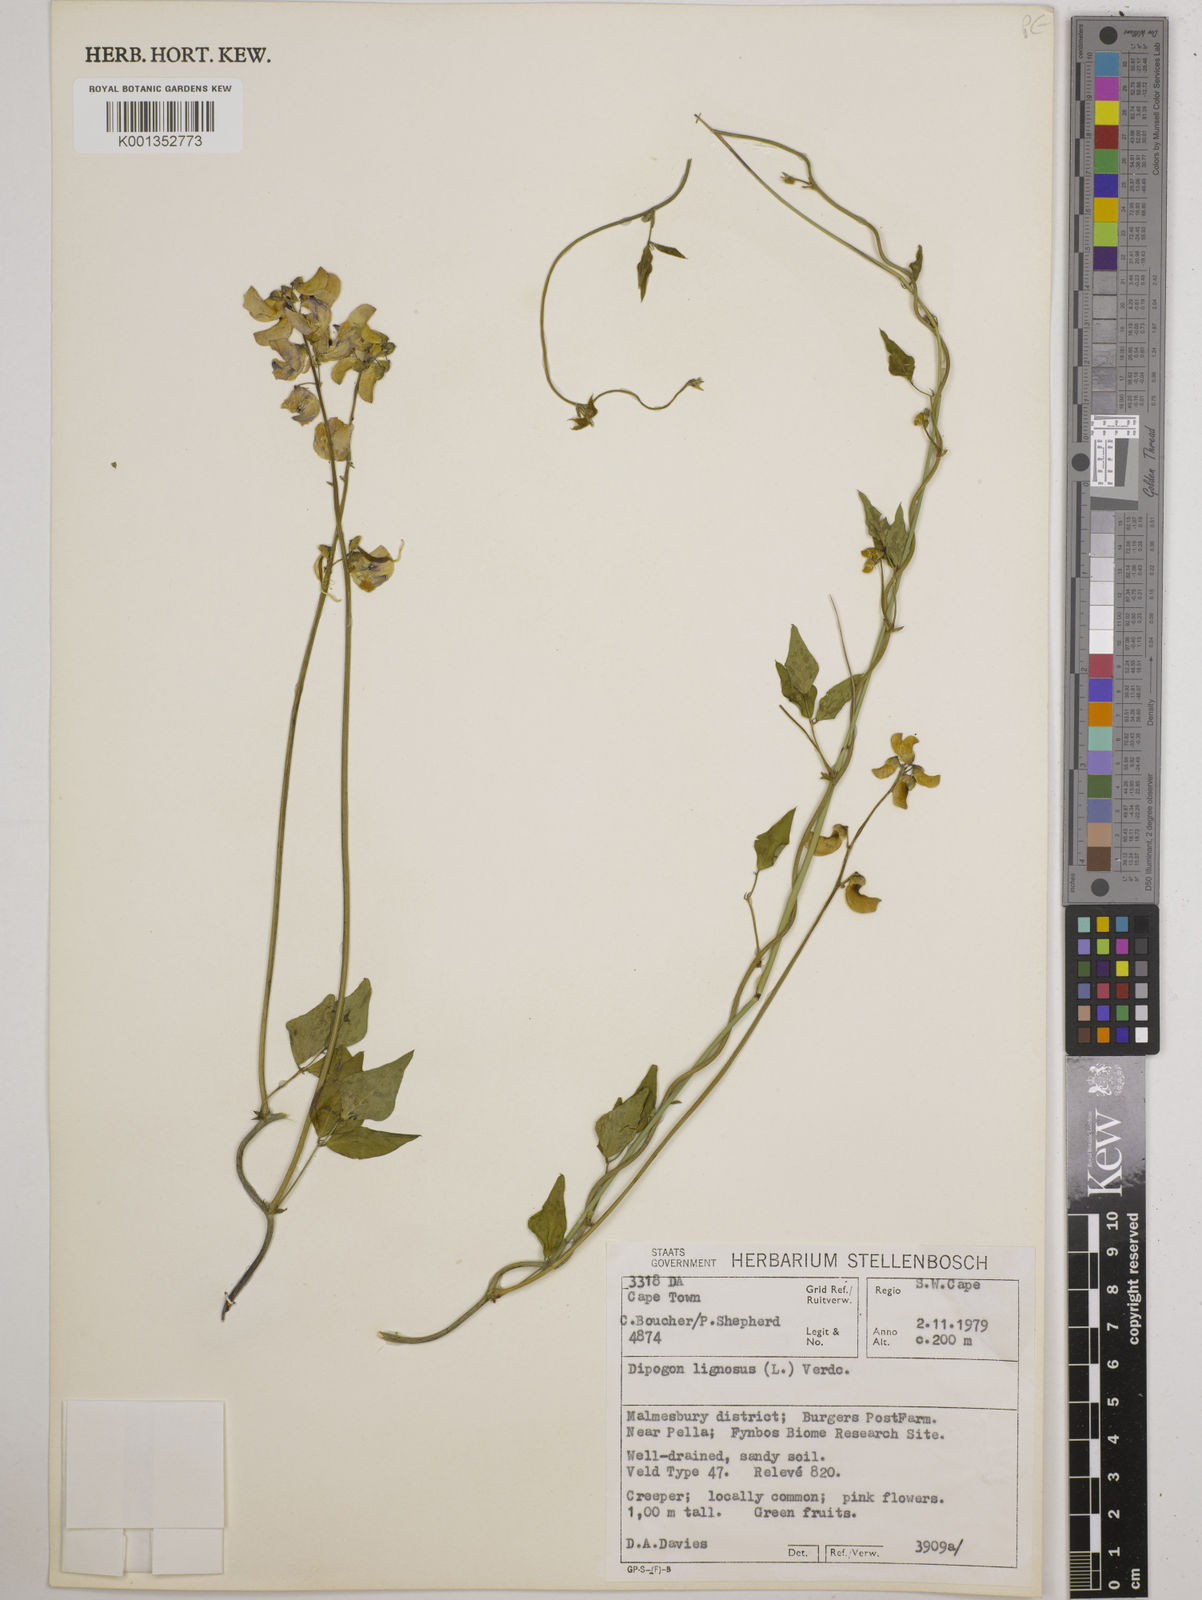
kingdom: Plantae
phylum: Tracheophyta
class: Magnoliopsida
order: Fabales
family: Fabaceae
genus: Dipogon
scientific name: Dipogon lignosus
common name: Okie bean
